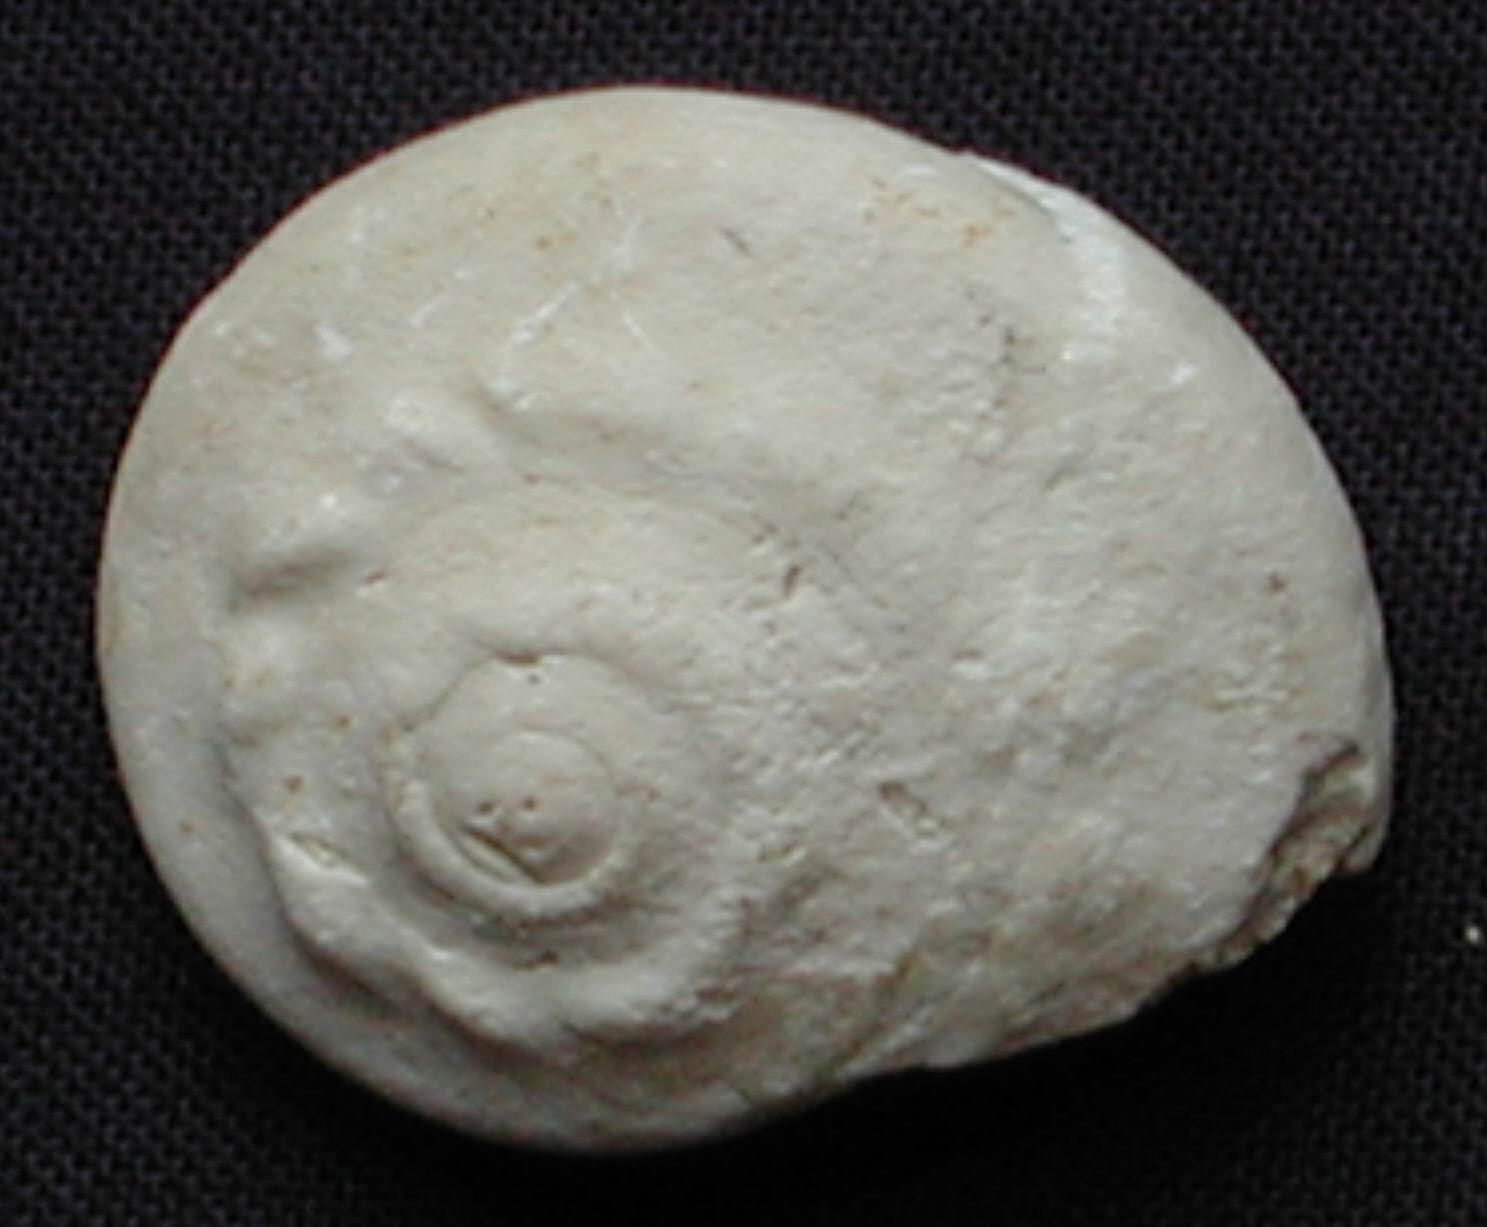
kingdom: Animalia
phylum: Mollusca
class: Gastropoda
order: Pleurotomariida
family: Ptychomphalidae
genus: Ptychomphalus
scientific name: Ptychomphalus Pleurotomaria wehenkeli
